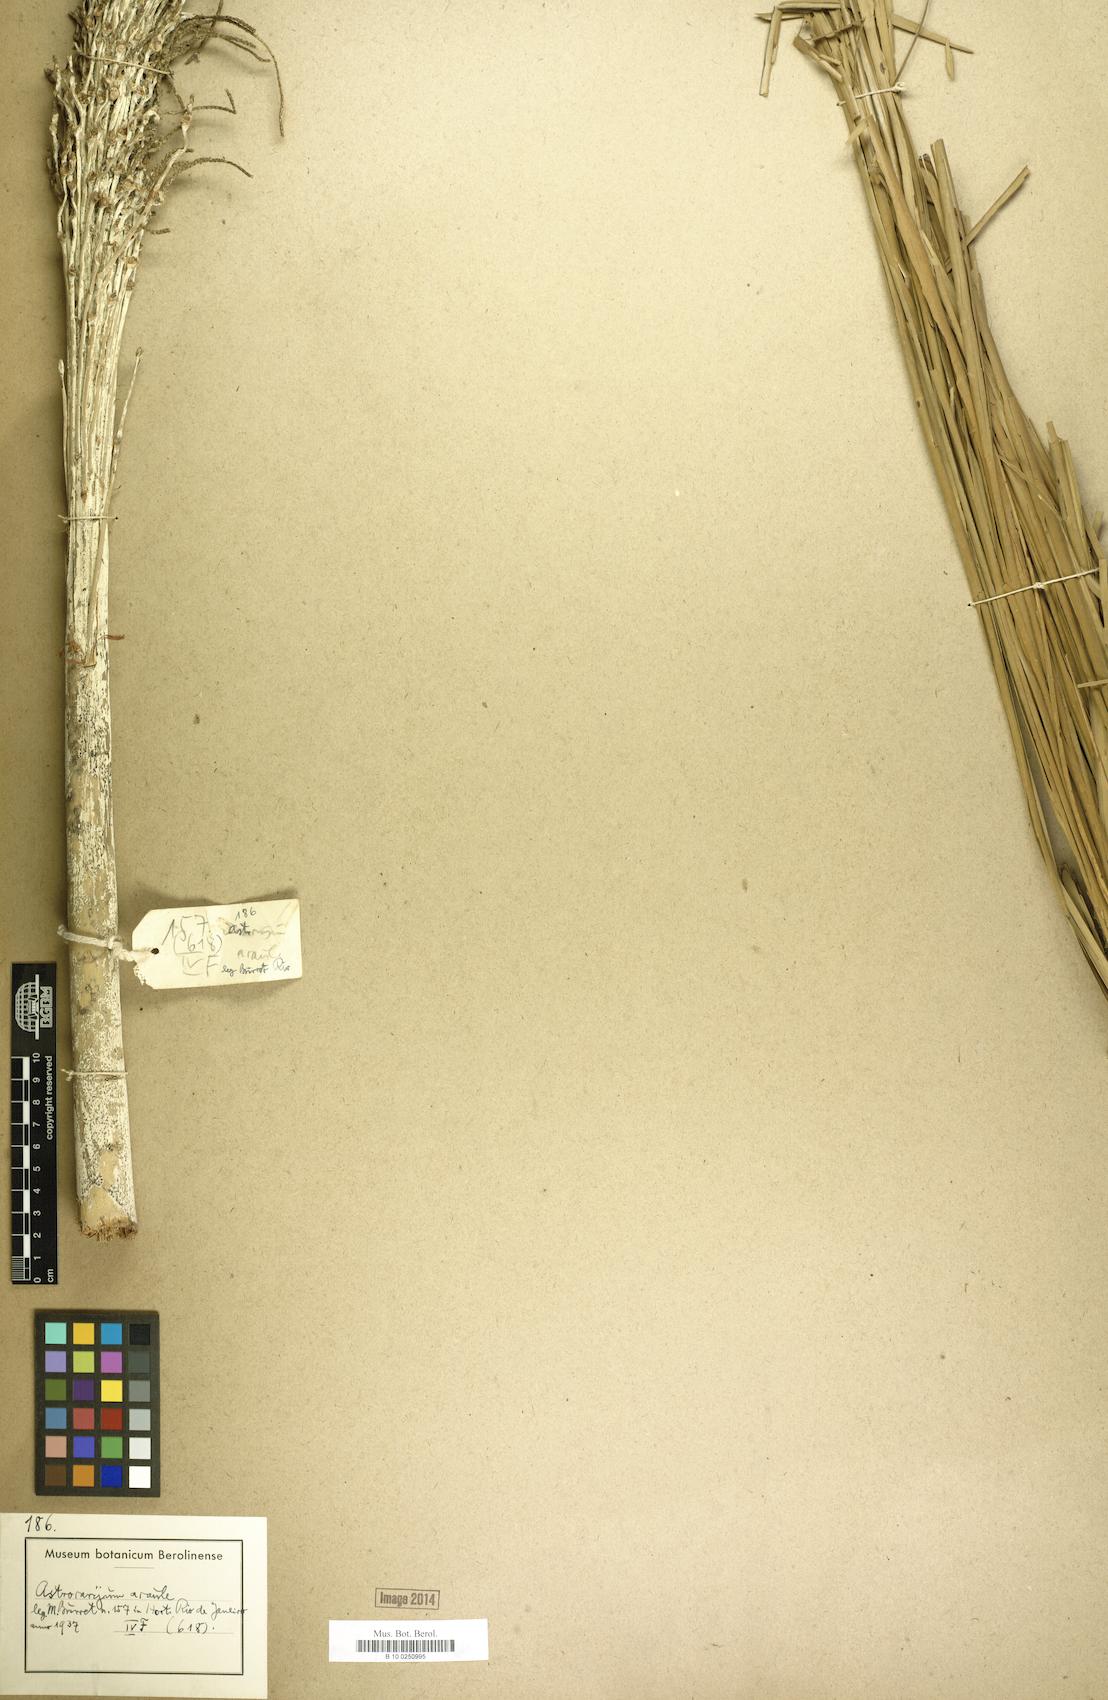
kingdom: Plantae
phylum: Tracheophyta
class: Liliopsida
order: Arecales
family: Arecaceae
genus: Astrocaryum
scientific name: Astrocaryum acaule
